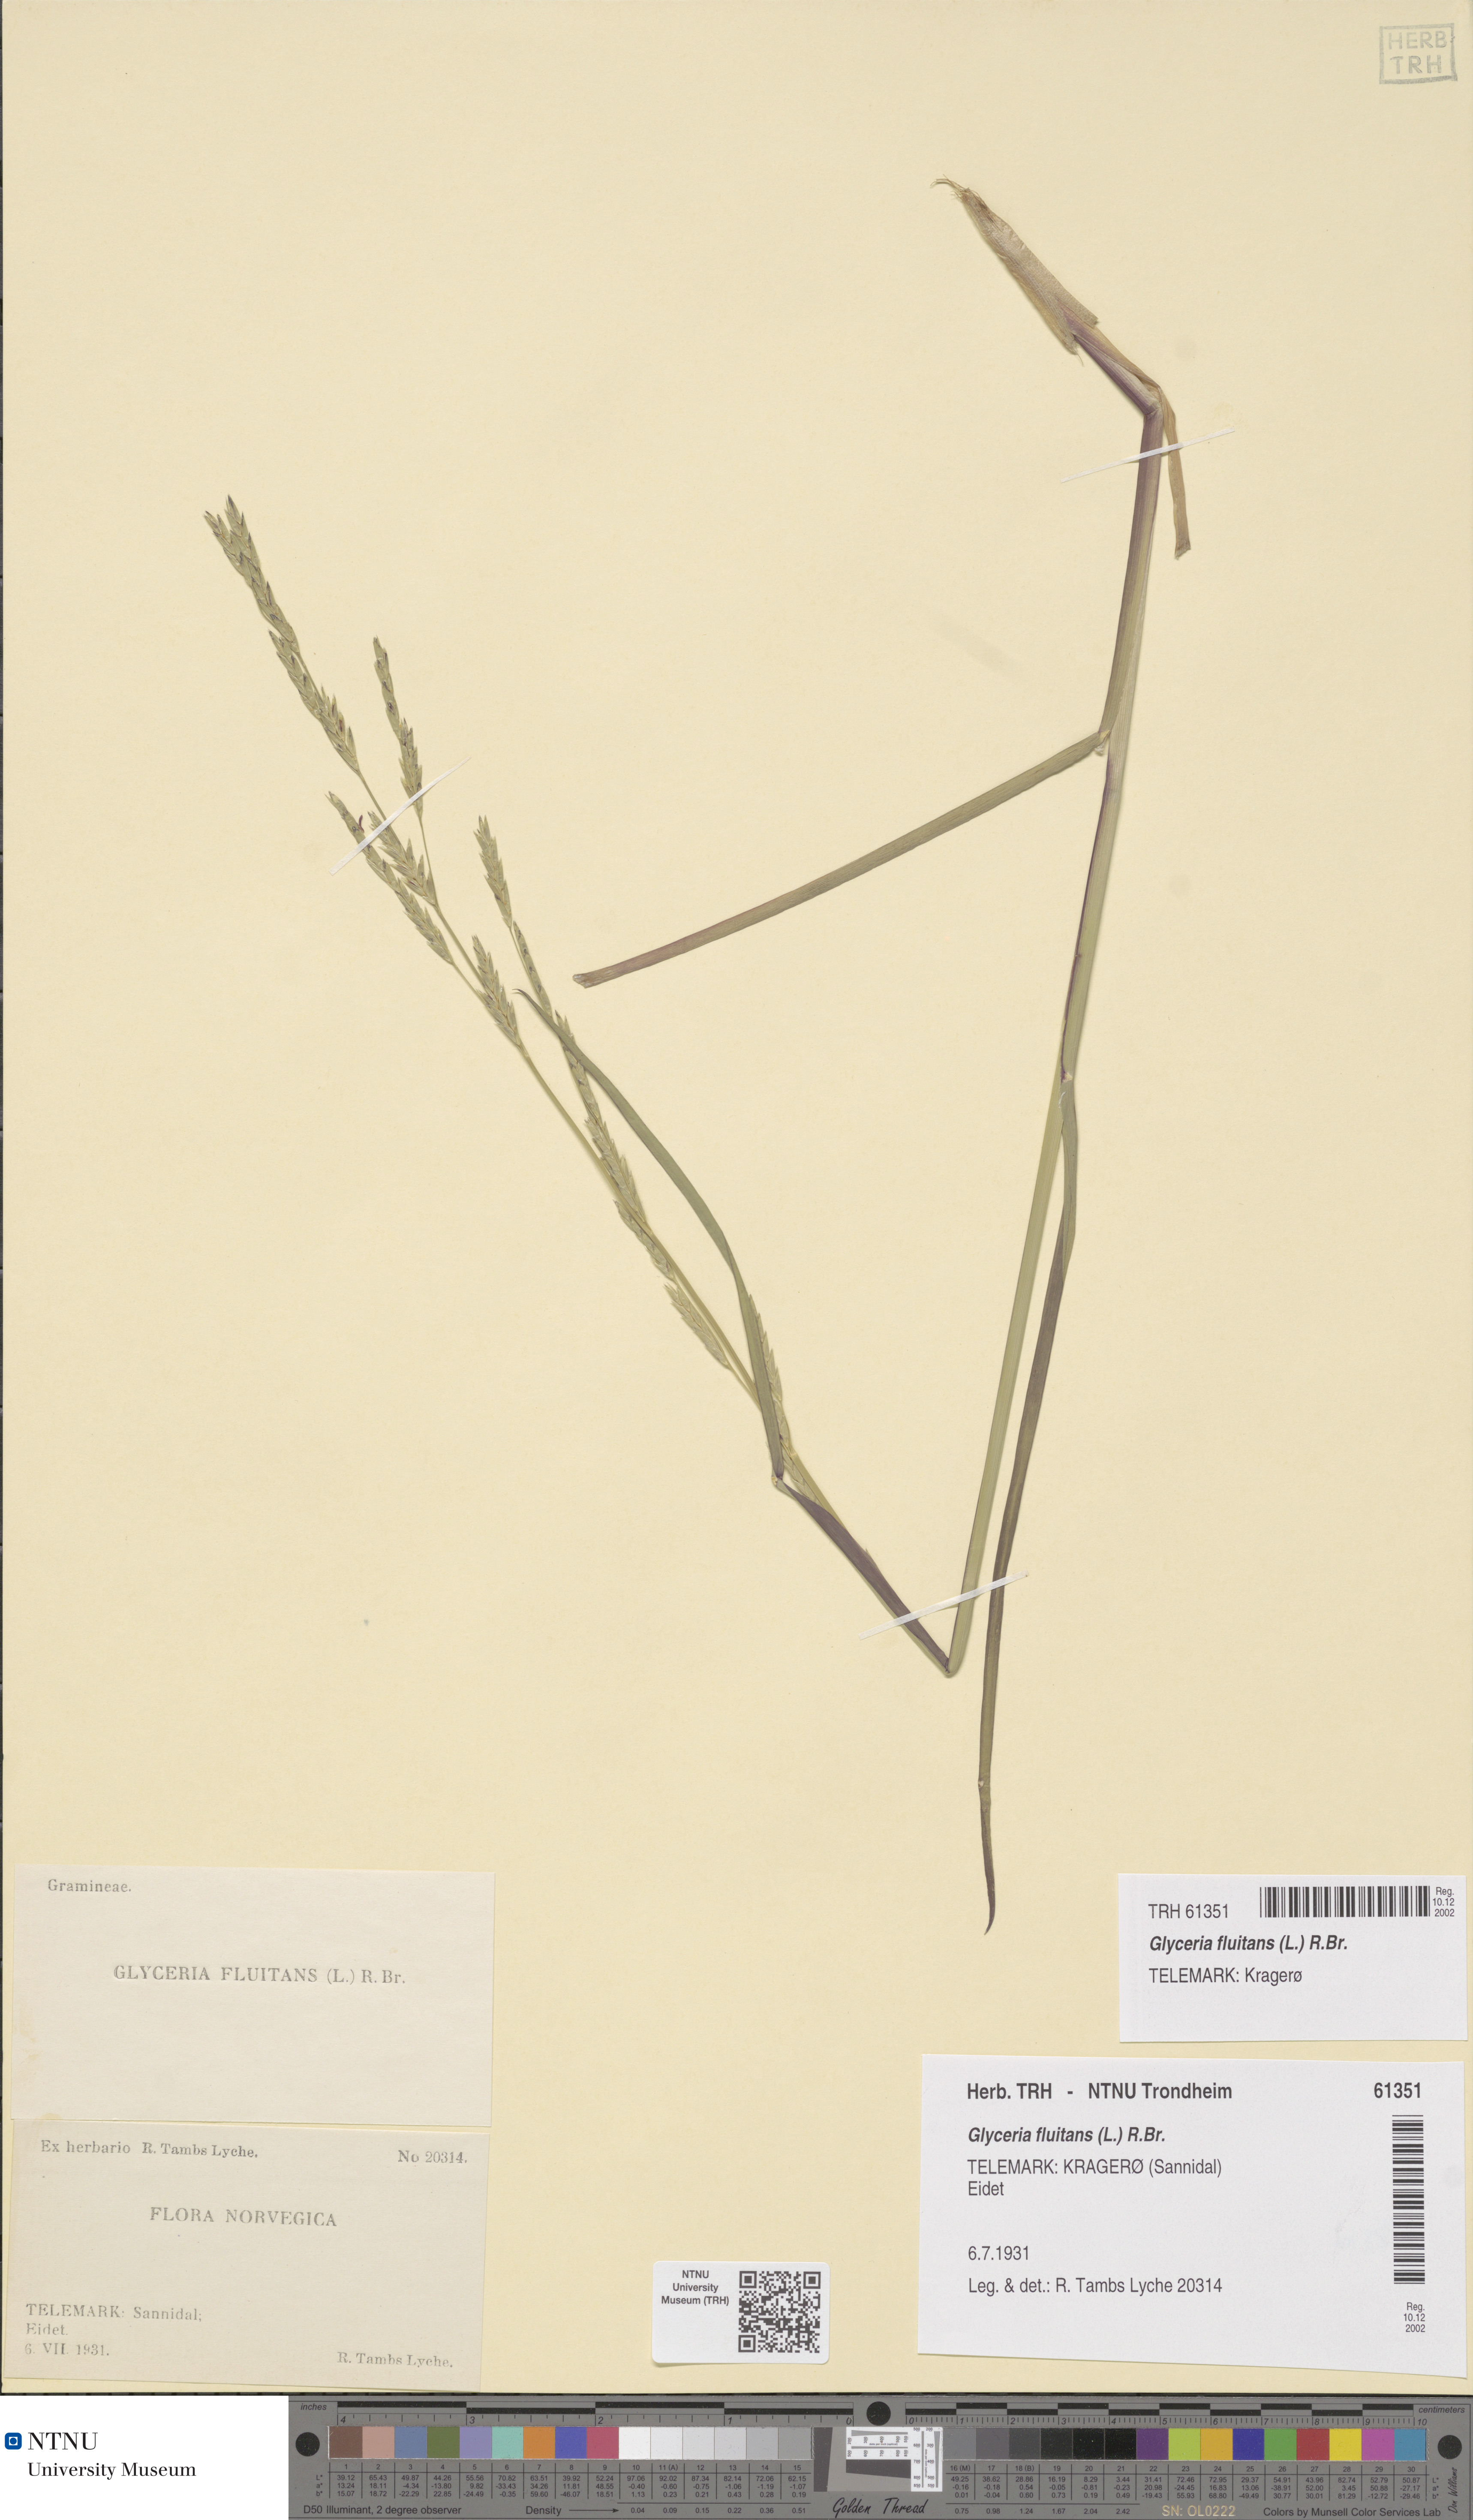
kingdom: Plantae
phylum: Tracheophyta
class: Liliopsida
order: Poales
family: Poaceae
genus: Glyceria
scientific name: Glyceria fluitans
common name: Floating sweet-grass
